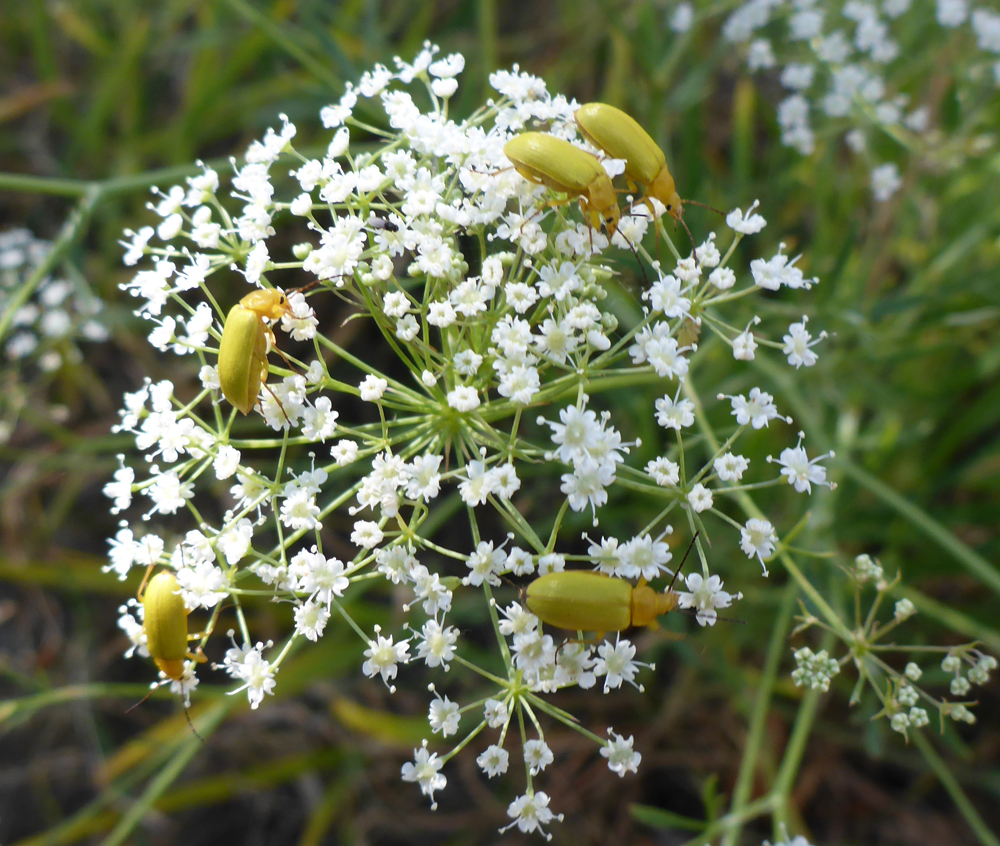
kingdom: Animalia
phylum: Arthropoda
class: Insecta
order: Coleoptera
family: Tenebrionidae
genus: Cteniopus
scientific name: Cteniopus sulphureus
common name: Sulphur beetle
